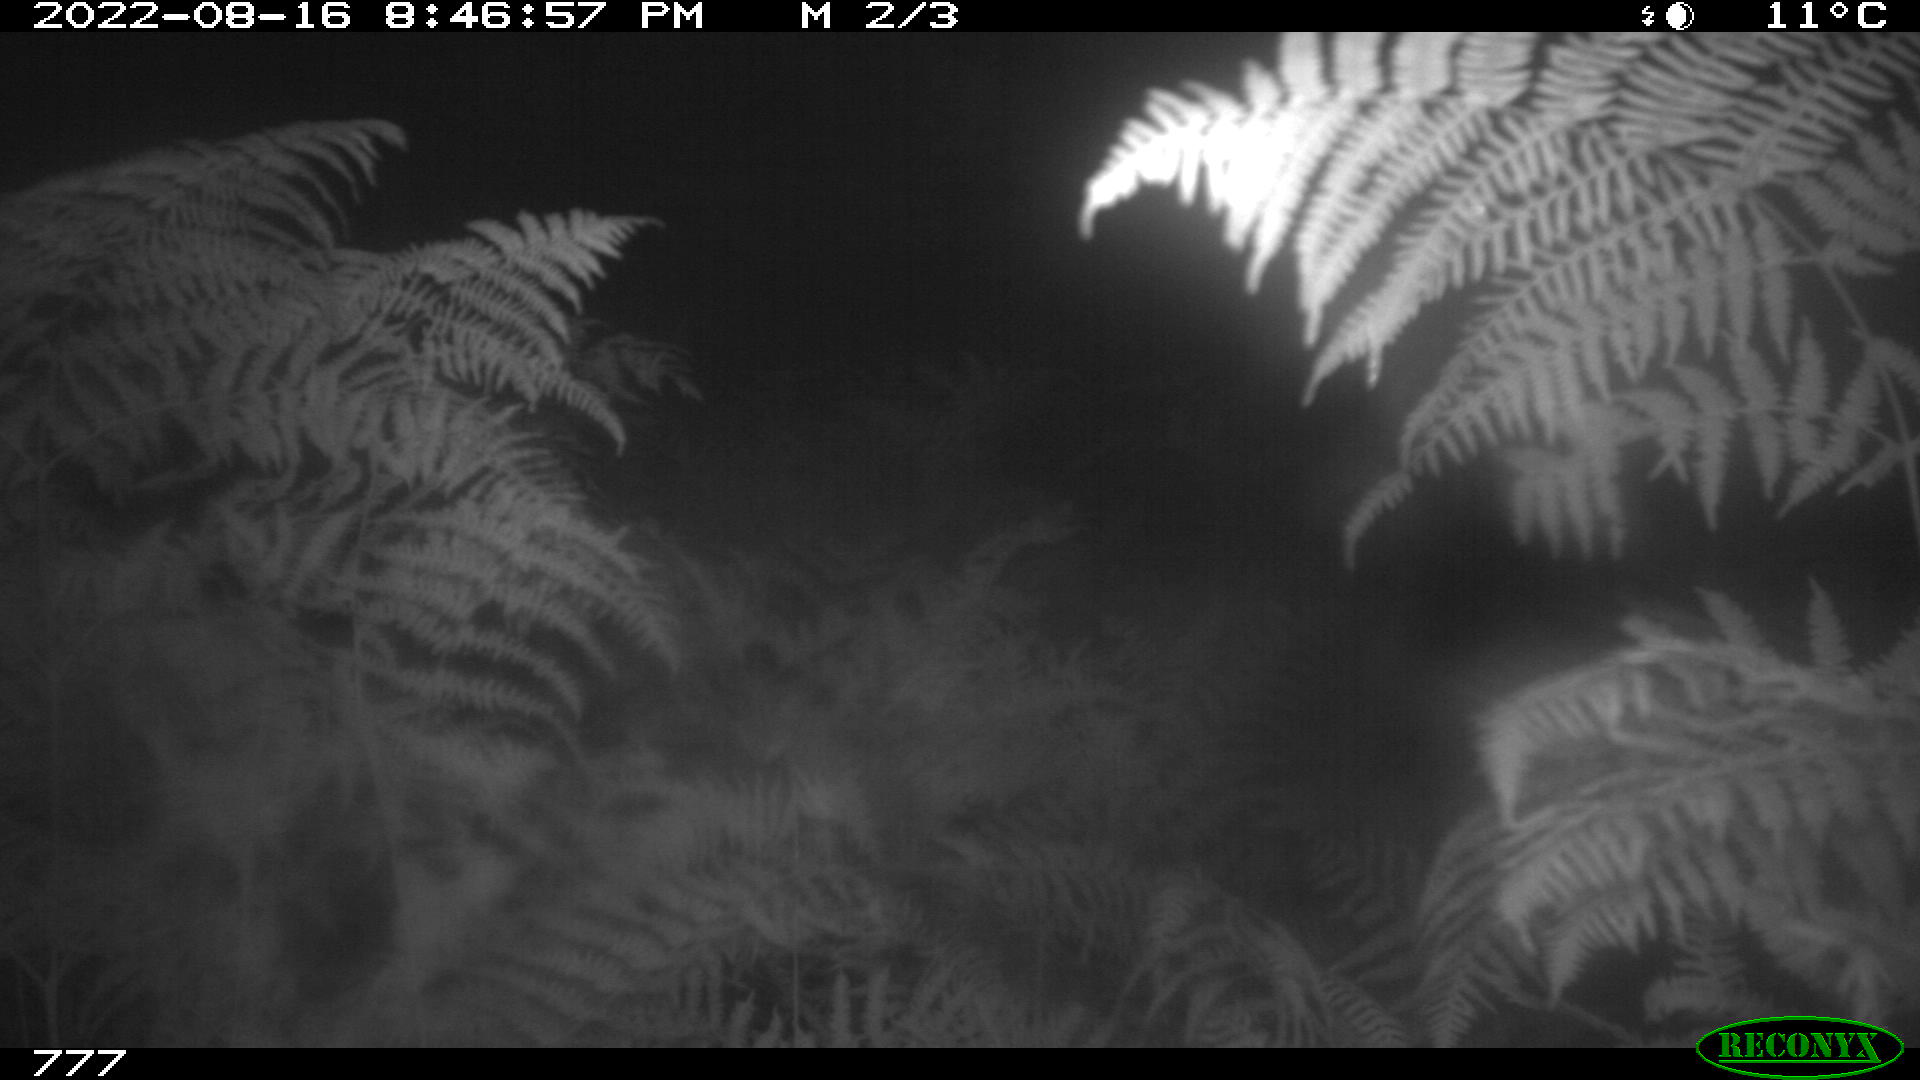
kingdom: Animalia
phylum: Chordata
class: Mammalia
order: Perissodactyla
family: Equidae
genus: Equus
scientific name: Equus caballus
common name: Horse
